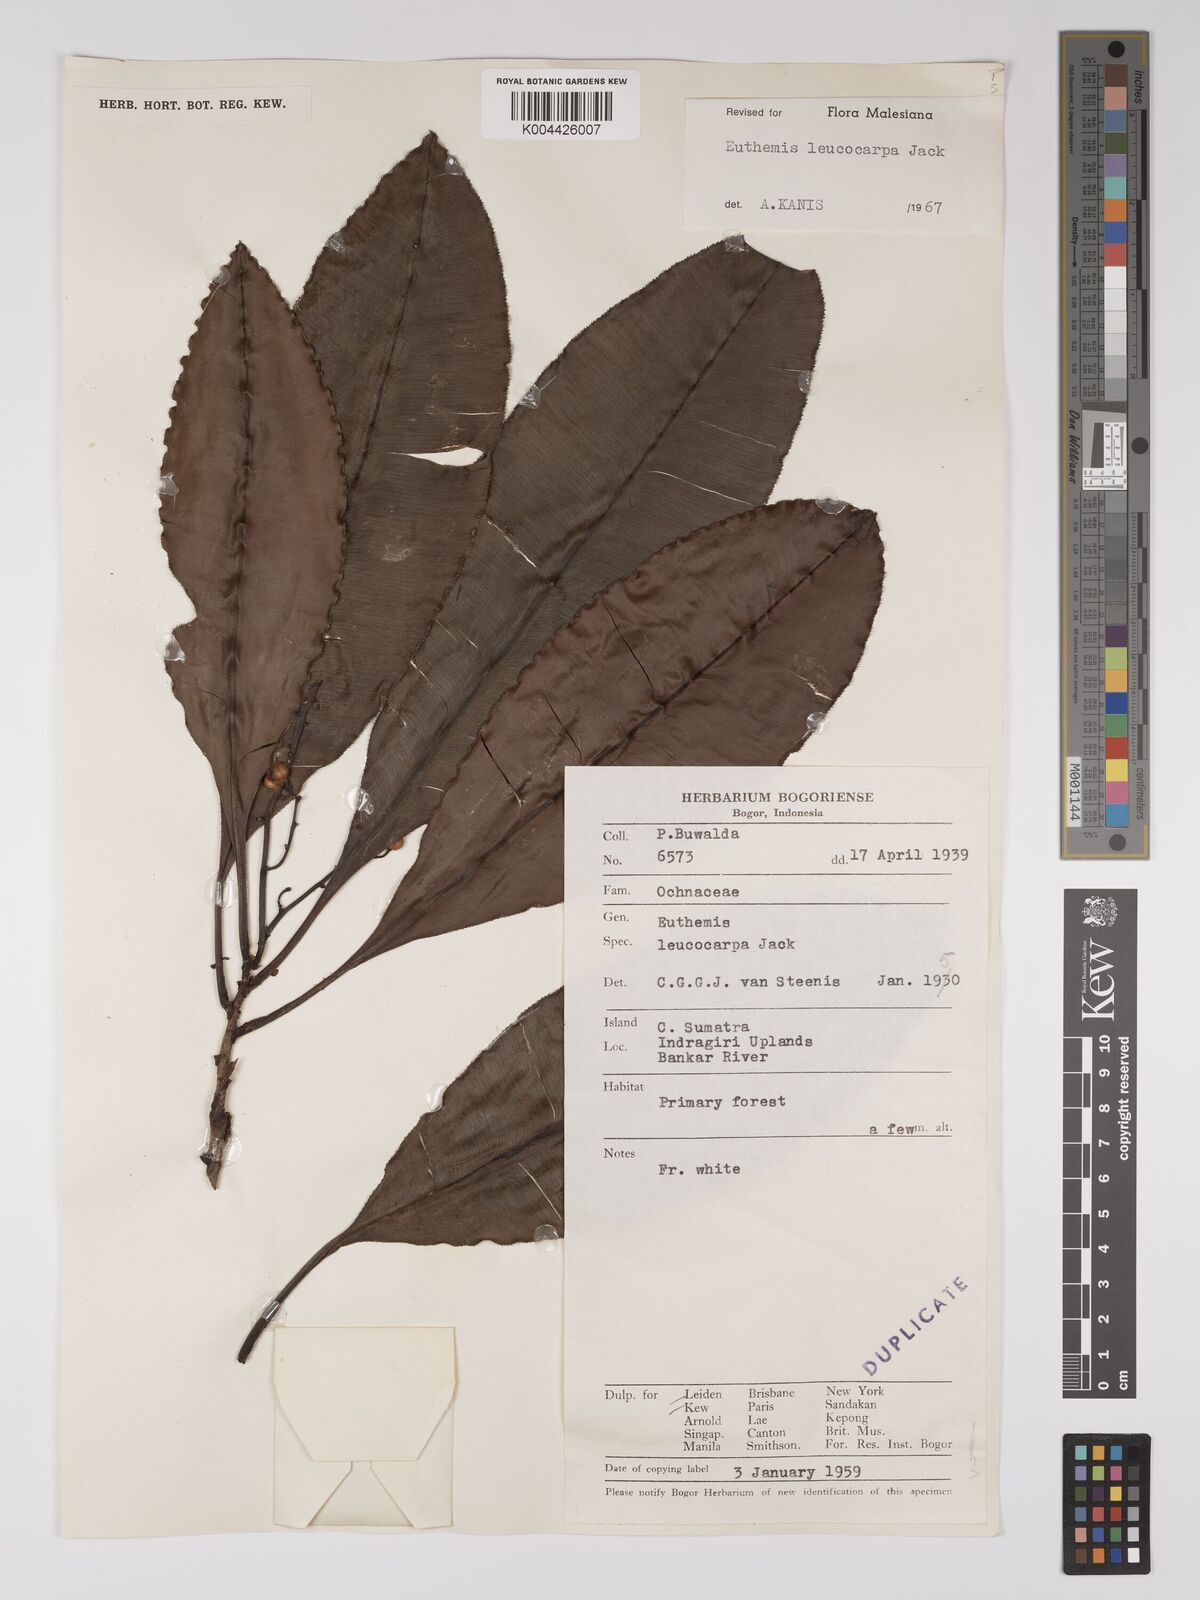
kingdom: Plantae
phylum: Tracheophyta
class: Magnoliopsida
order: Malpighiales
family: Ochnaceae
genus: Euthemis
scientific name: Euthemis leucocarpa
